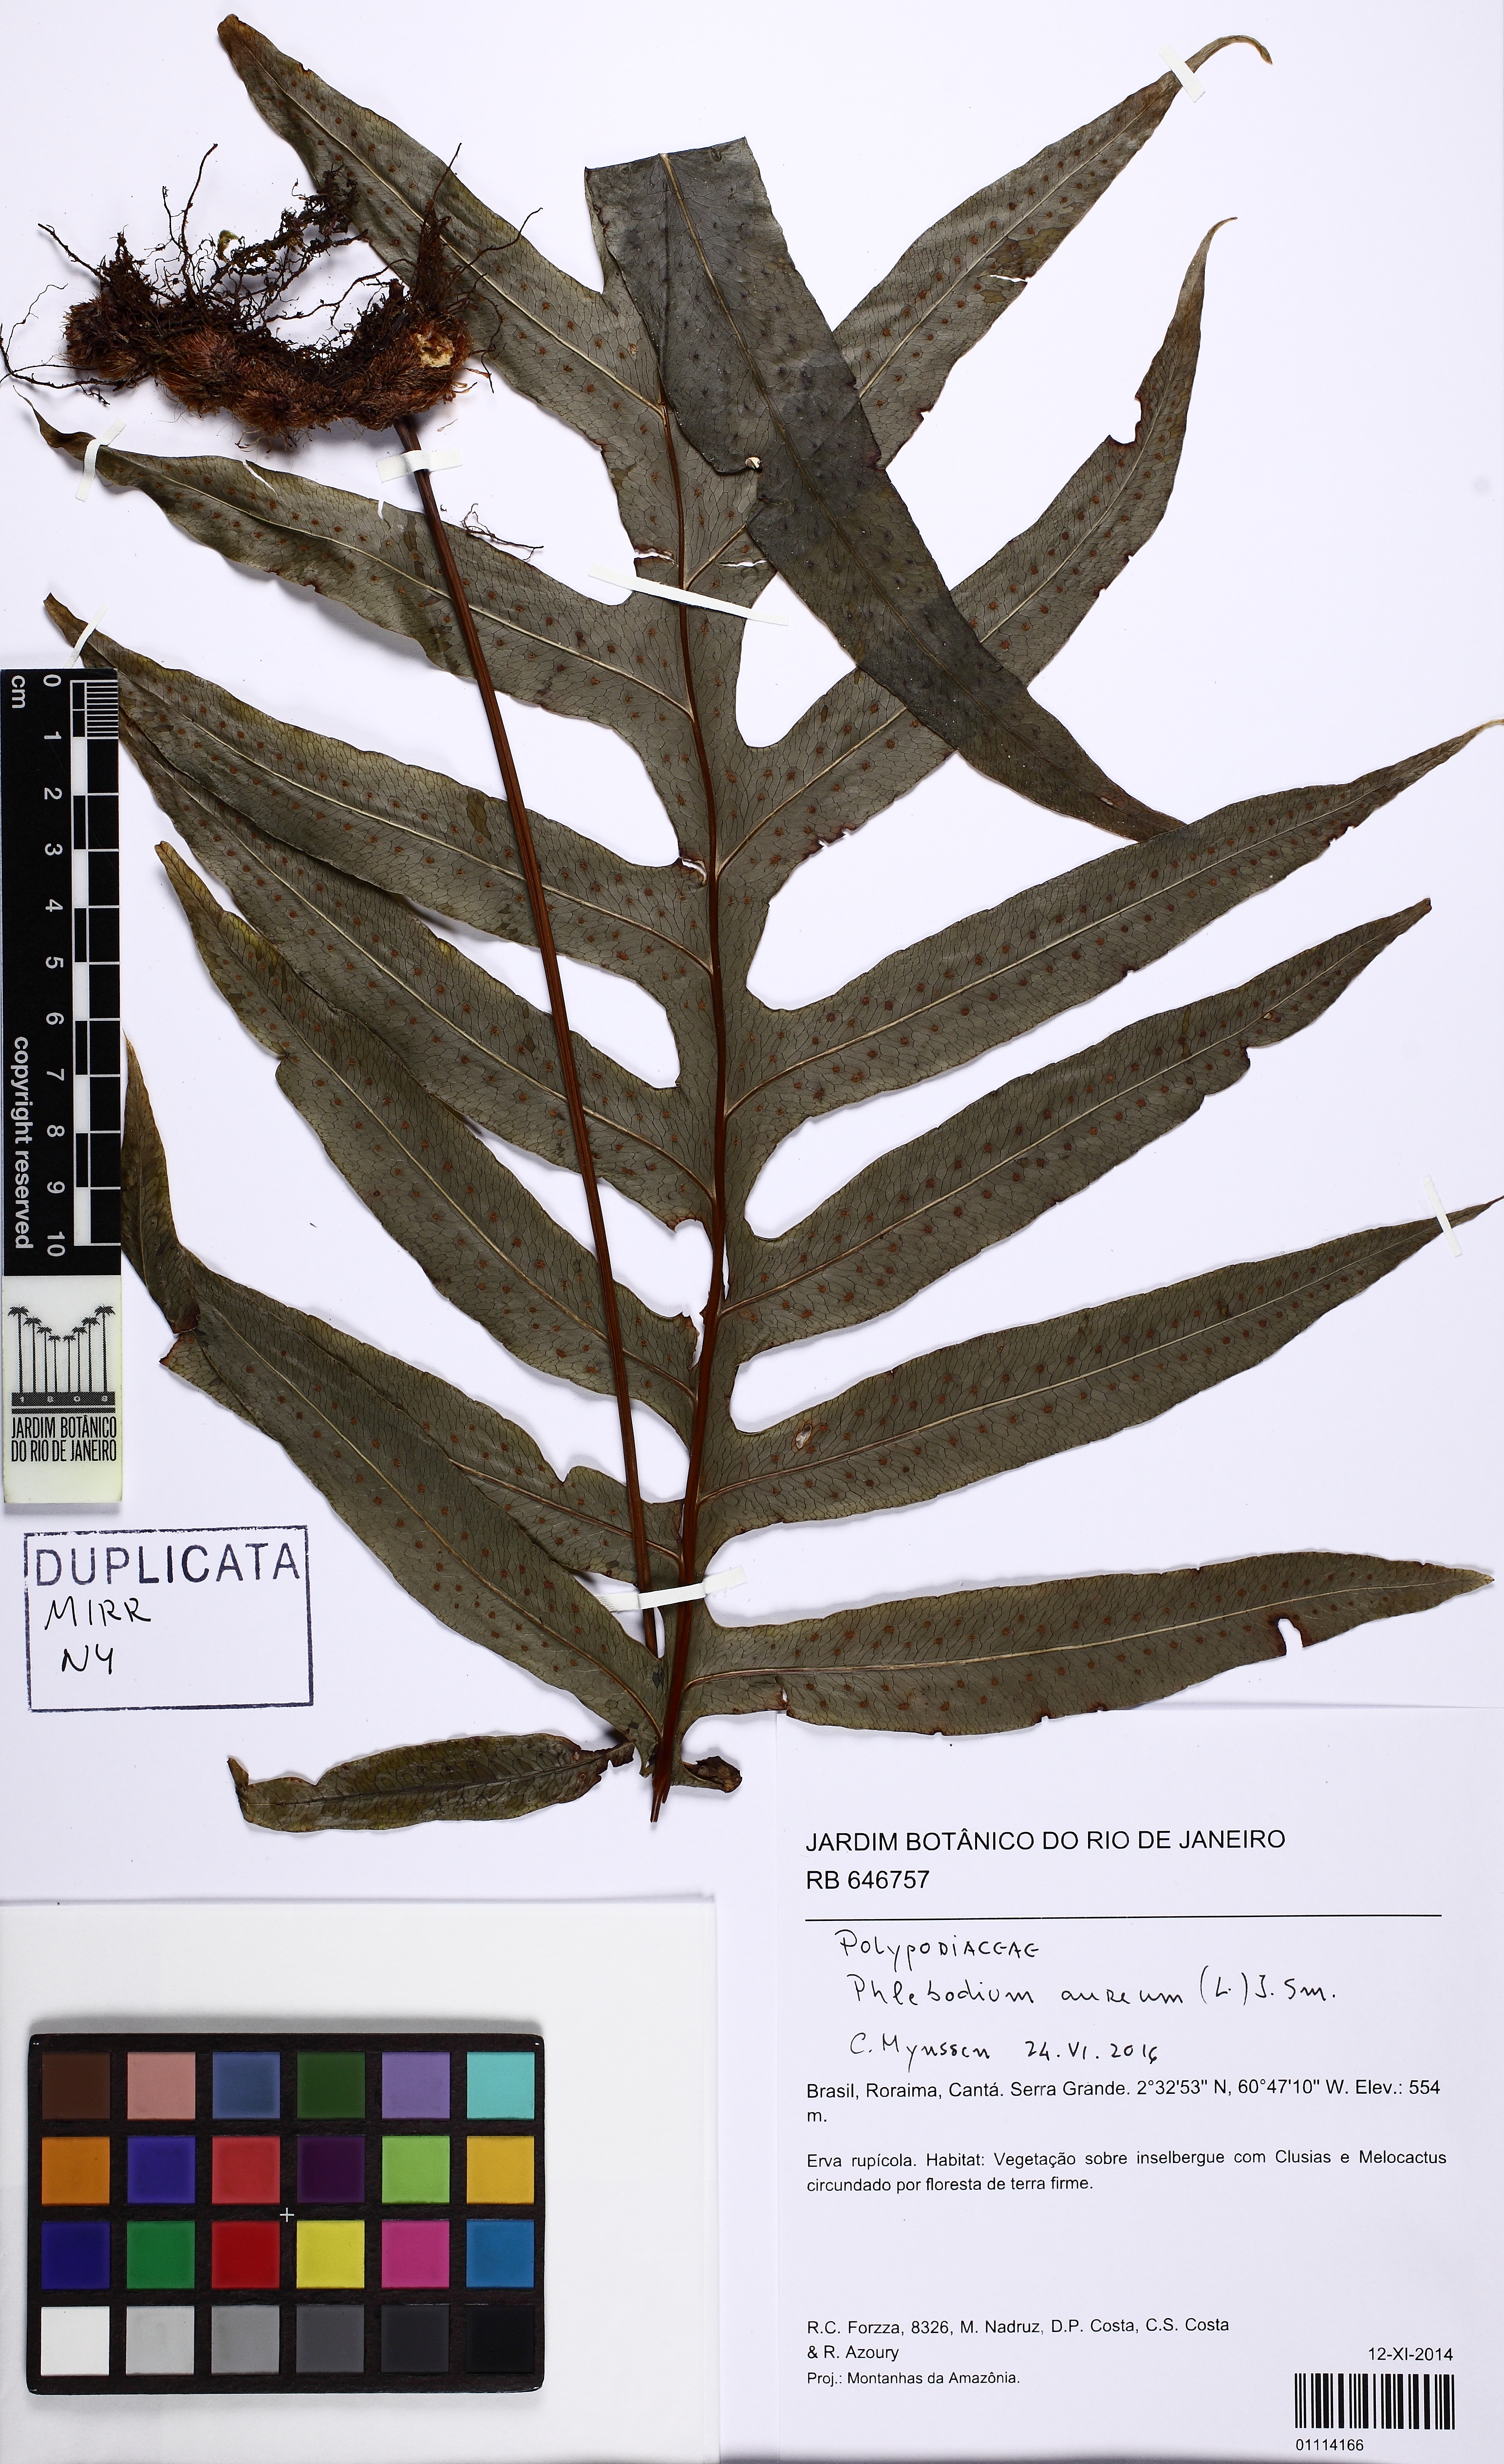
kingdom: Plantae
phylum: Tracheophyta
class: Polypodiopsida
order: Polypodiales
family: Polypodiaceae
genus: Phlebodium
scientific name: Phlebodium aureum
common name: Gold-foot fern
